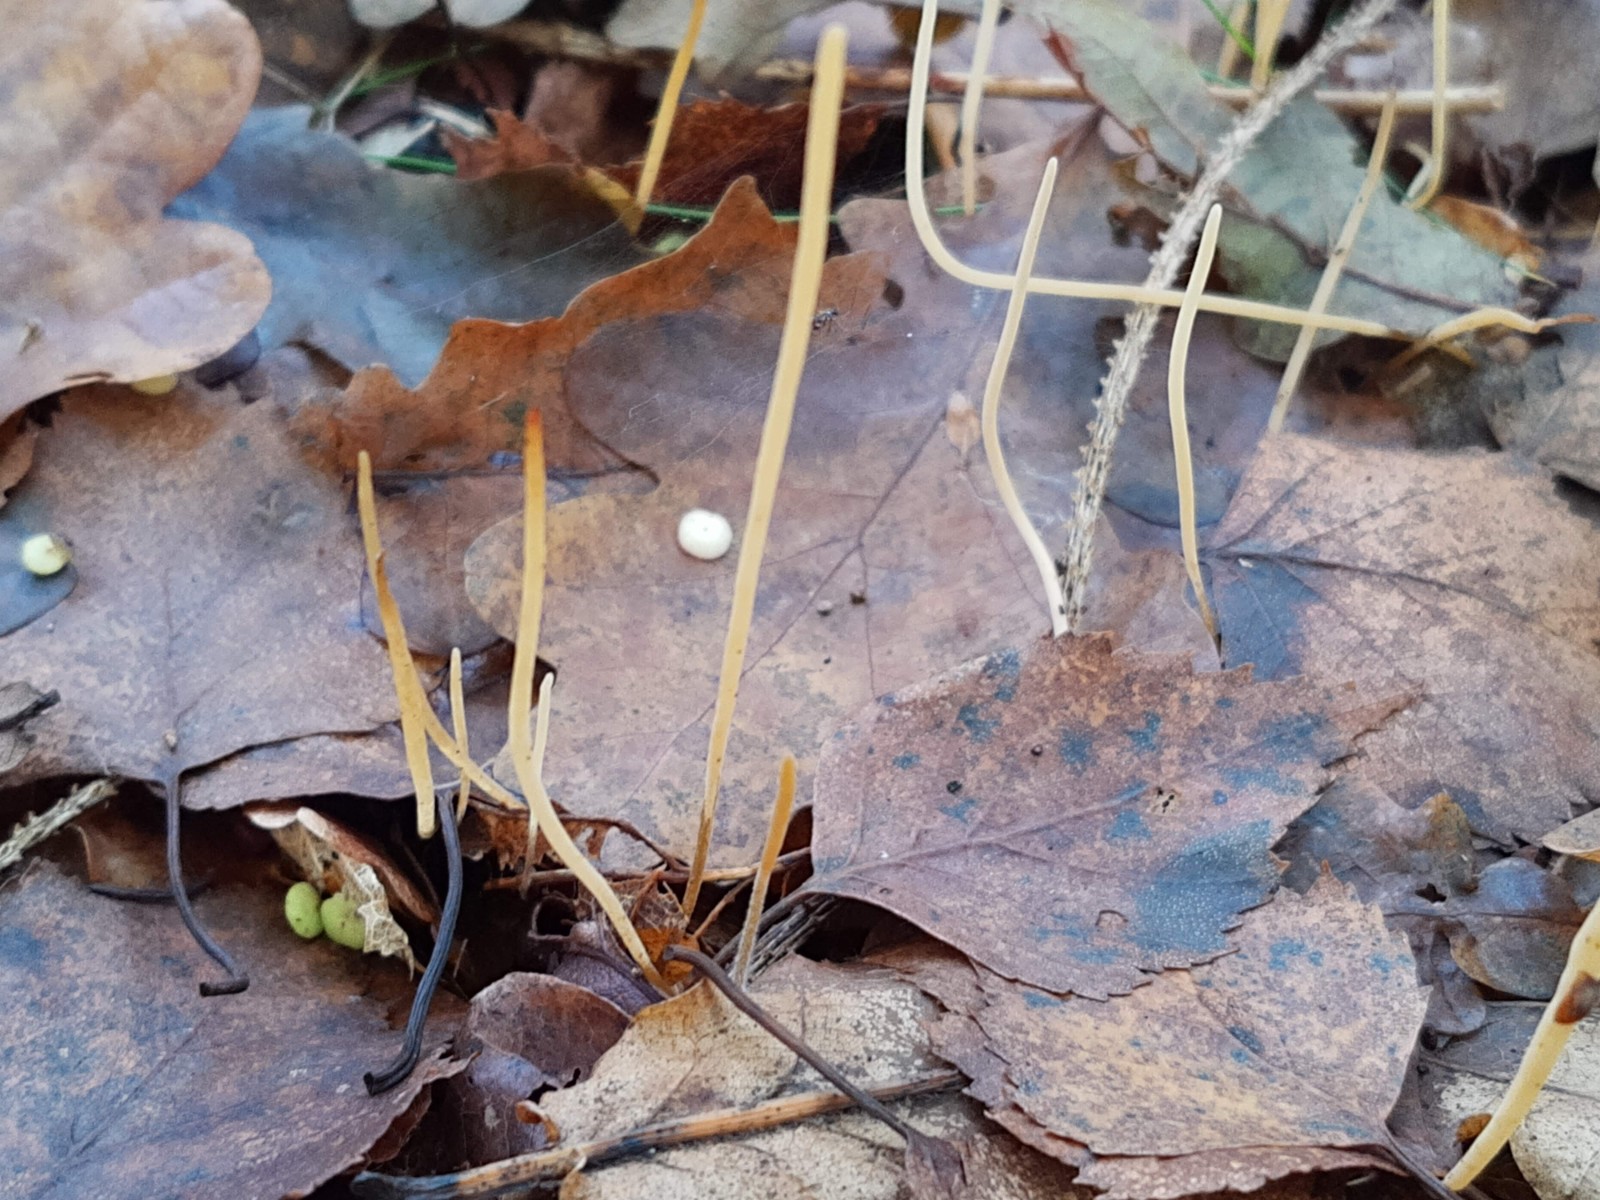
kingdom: Fungi
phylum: Basidiomycota
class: Agaricomycetes
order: Agaricales
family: Typhulaceae
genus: Macrotyphula
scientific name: Macrotyphula
